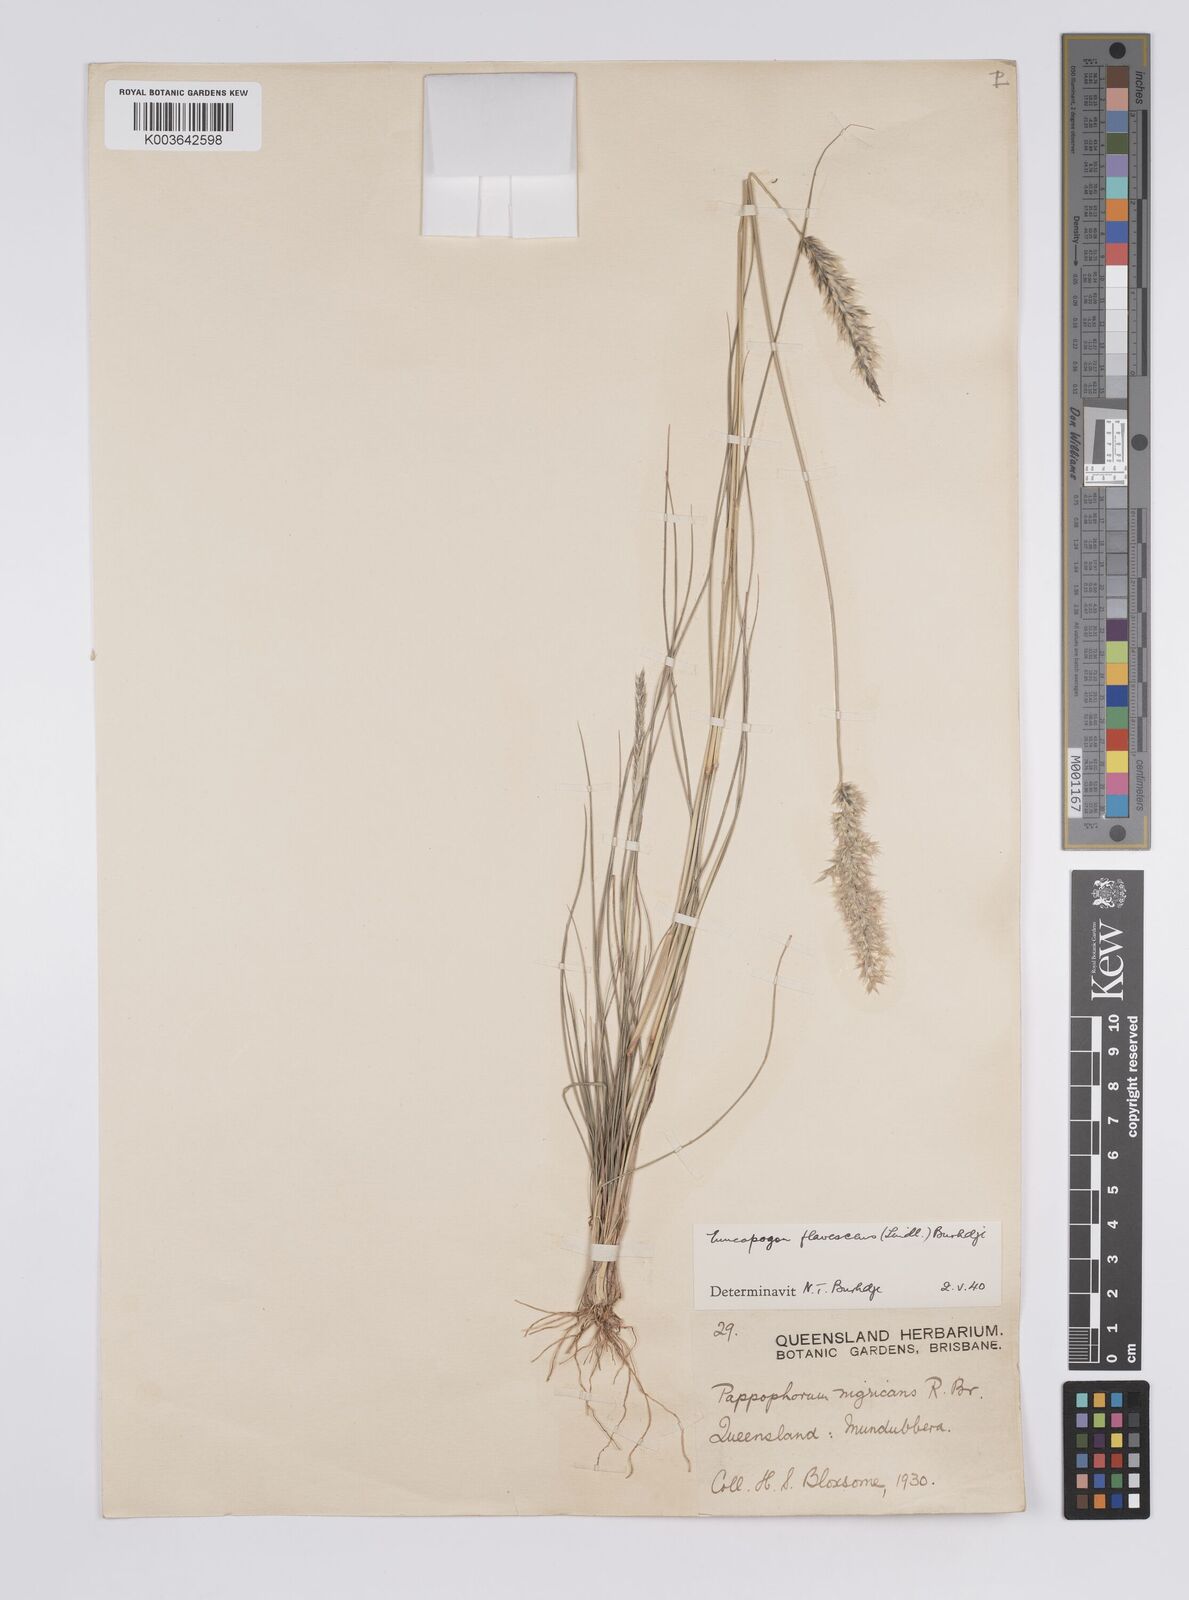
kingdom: Plantae
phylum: Tracheophyta
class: Liliopsida
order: Poales
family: Poaceae
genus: Enneapogon
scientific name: Enneapogon truncatus
